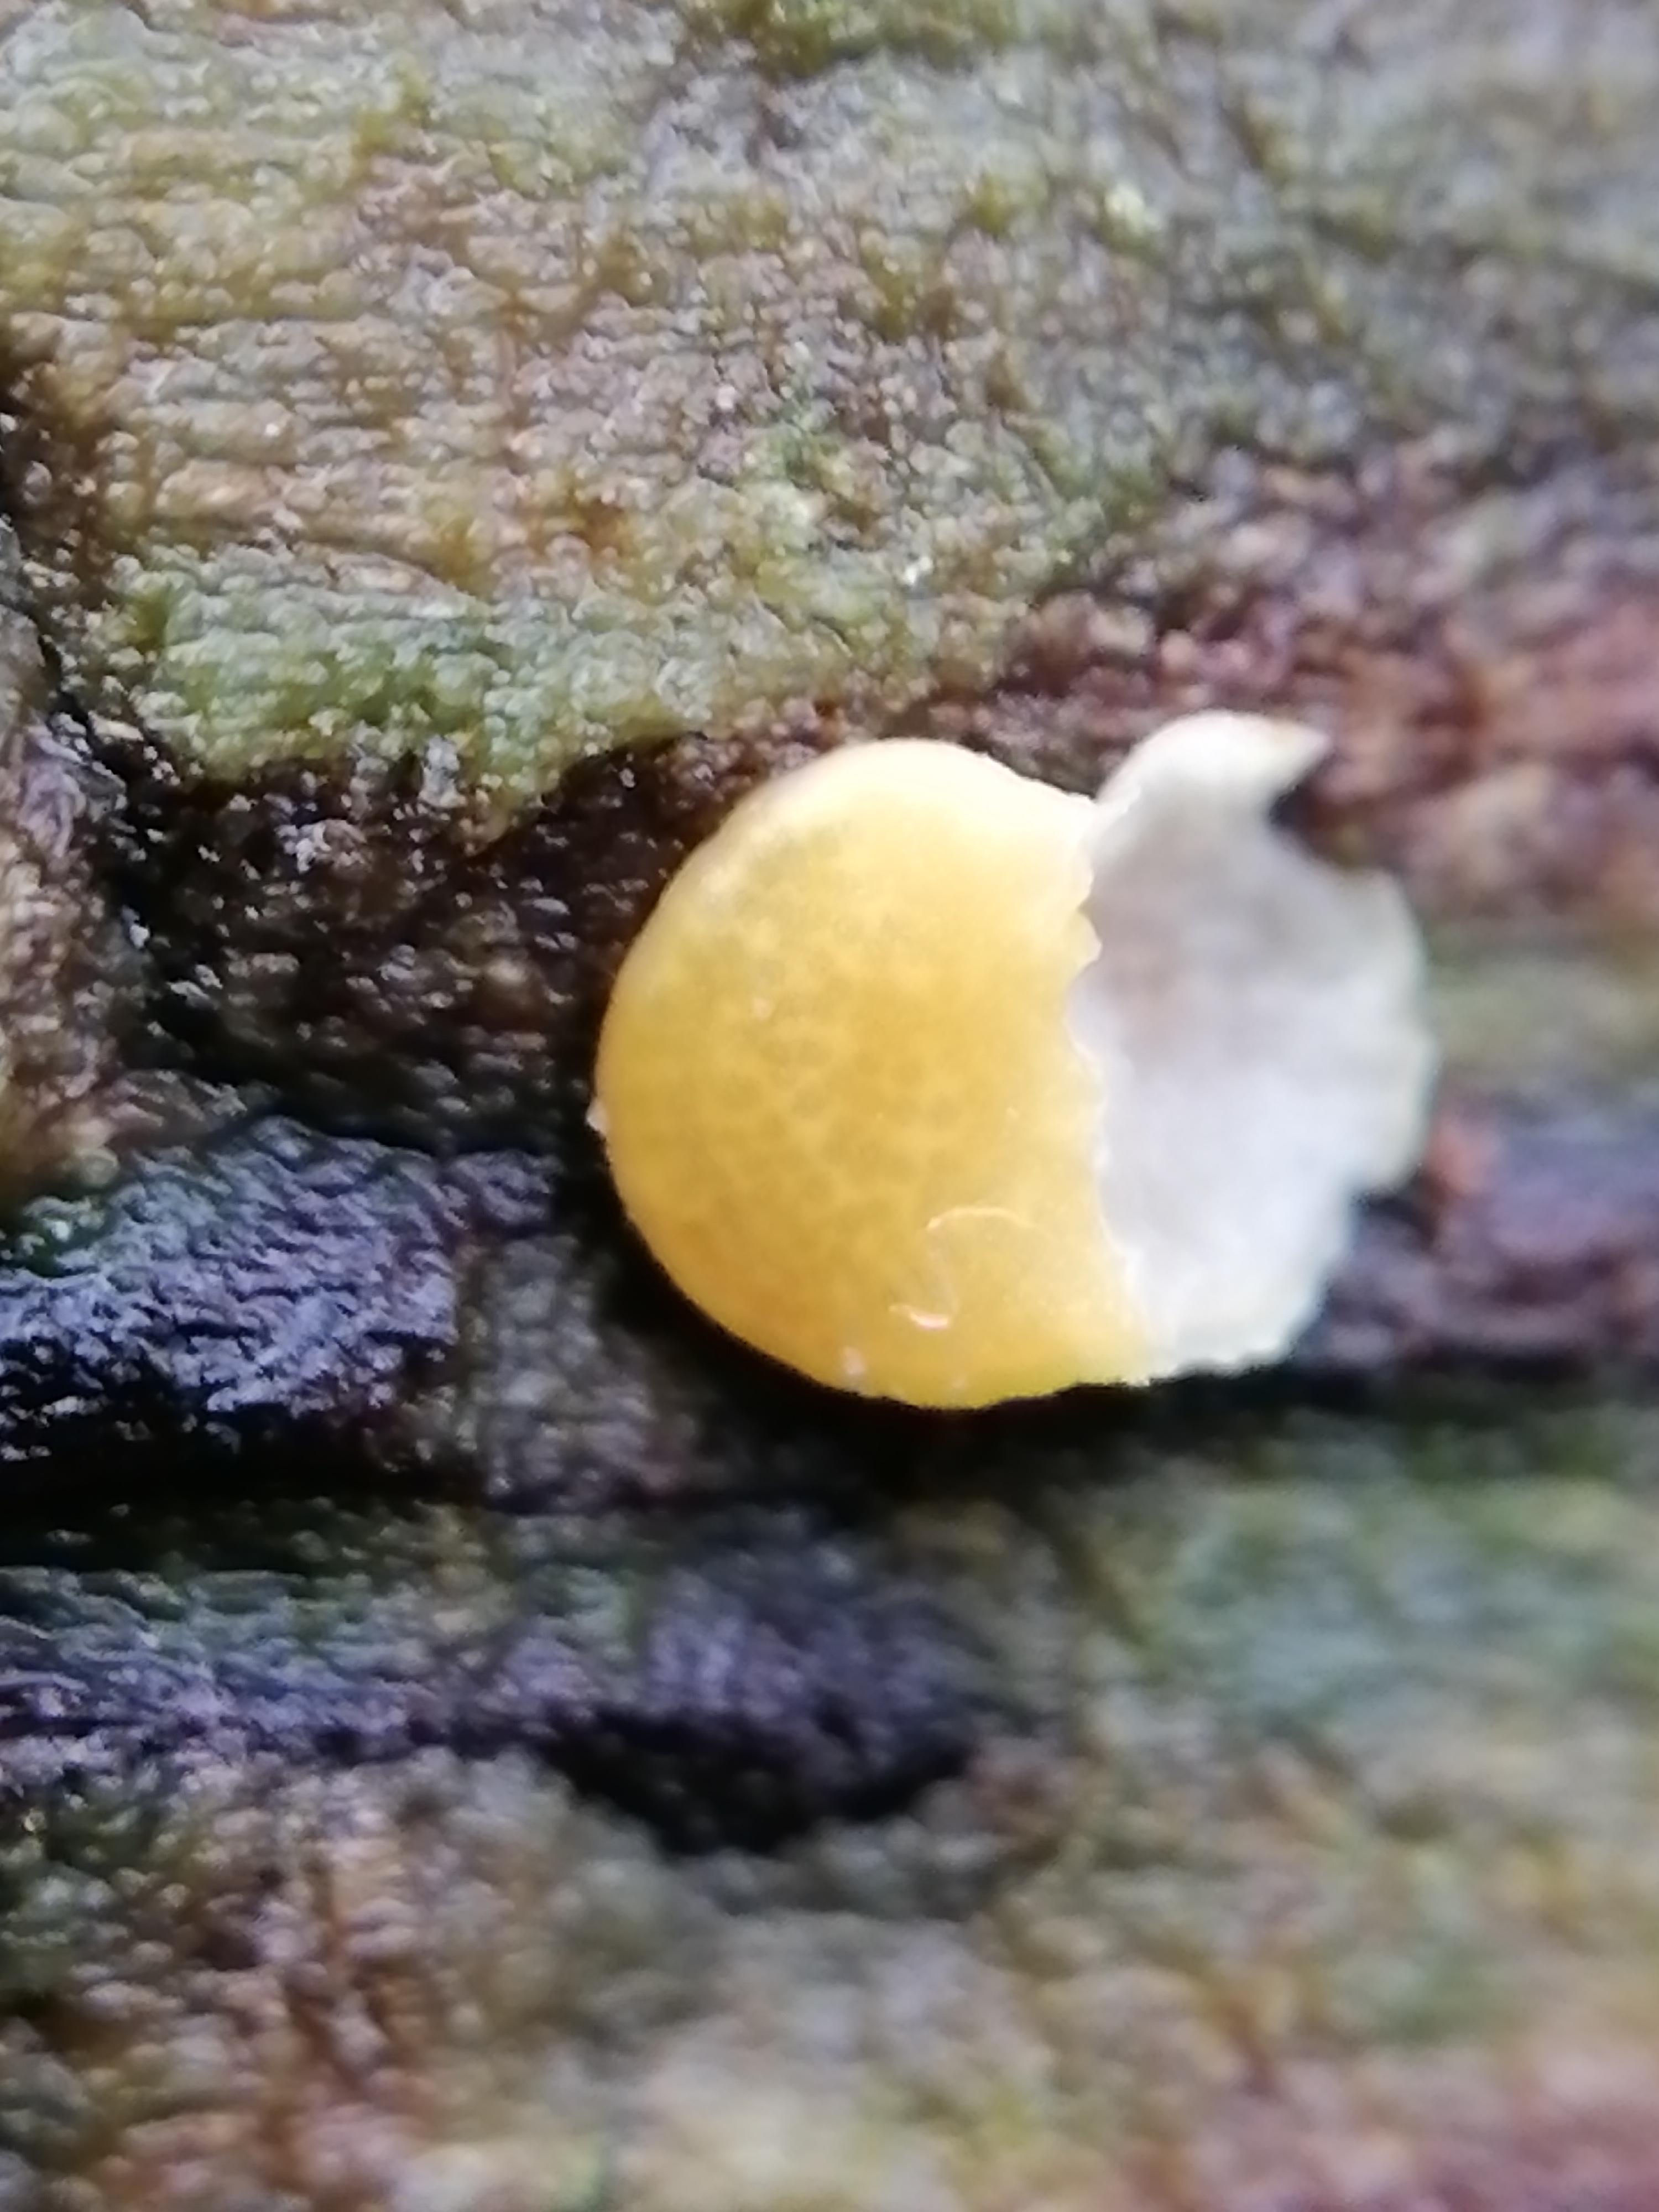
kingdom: Fungi
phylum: Ascomycota
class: Sordariomycetes
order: Hypocreales
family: Hypocreaceae
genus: Trichoderma
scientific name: Trichoderma
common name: kødkerne
